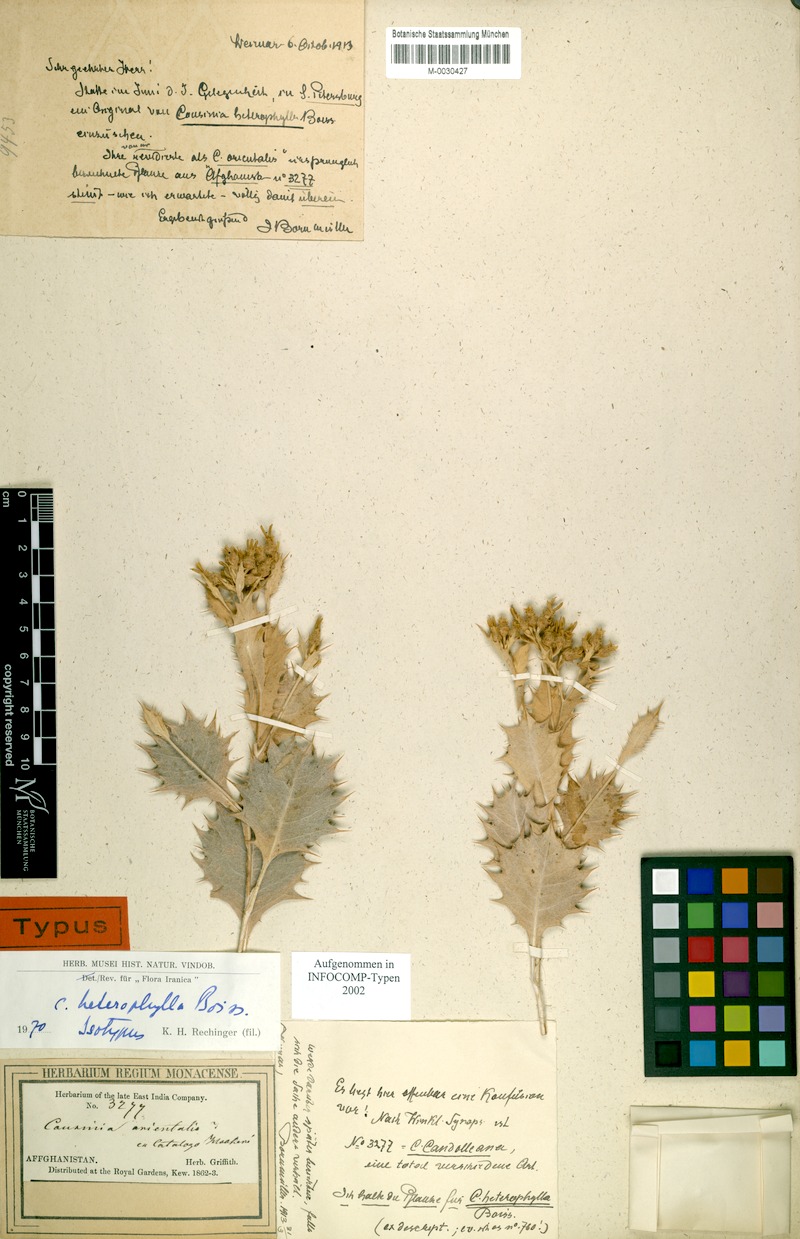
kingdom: Plantae
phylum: Tracheophyta
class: Magnoliopsida
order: Asterales
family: Asteraceae
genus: Cousinia
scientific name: Cousinia heterophylla
